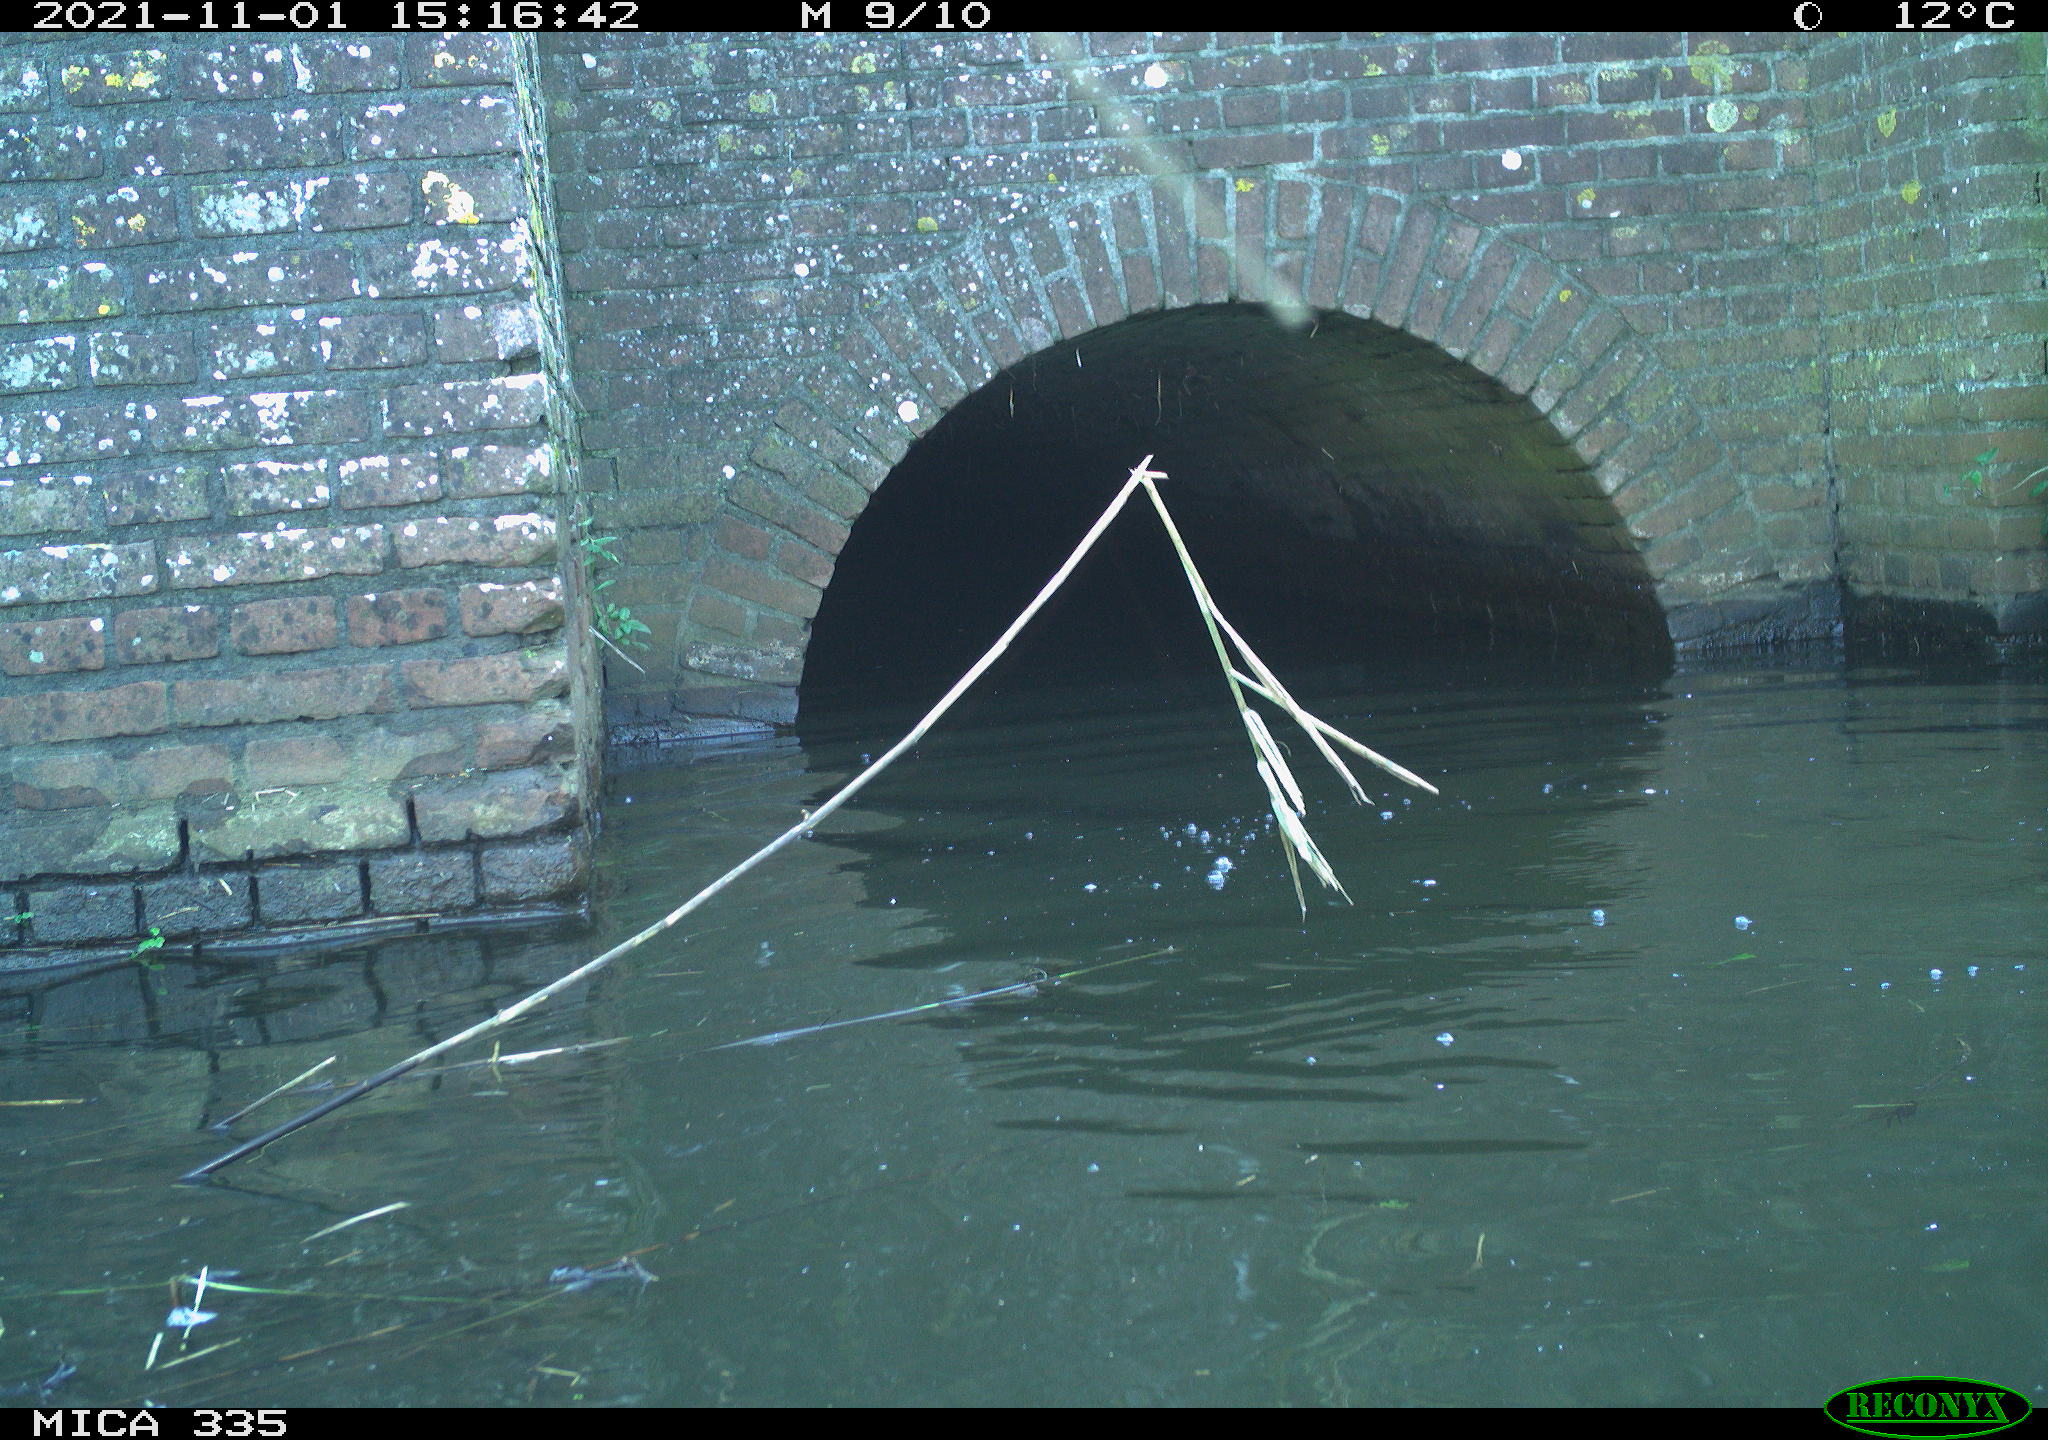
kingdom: Animalia
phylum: Chordata
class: Aves
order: Suliformes
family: Phalacrocoracidae
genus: Phalacrocorax
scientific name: Phalacrocorax carbo
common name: Great cormorant
